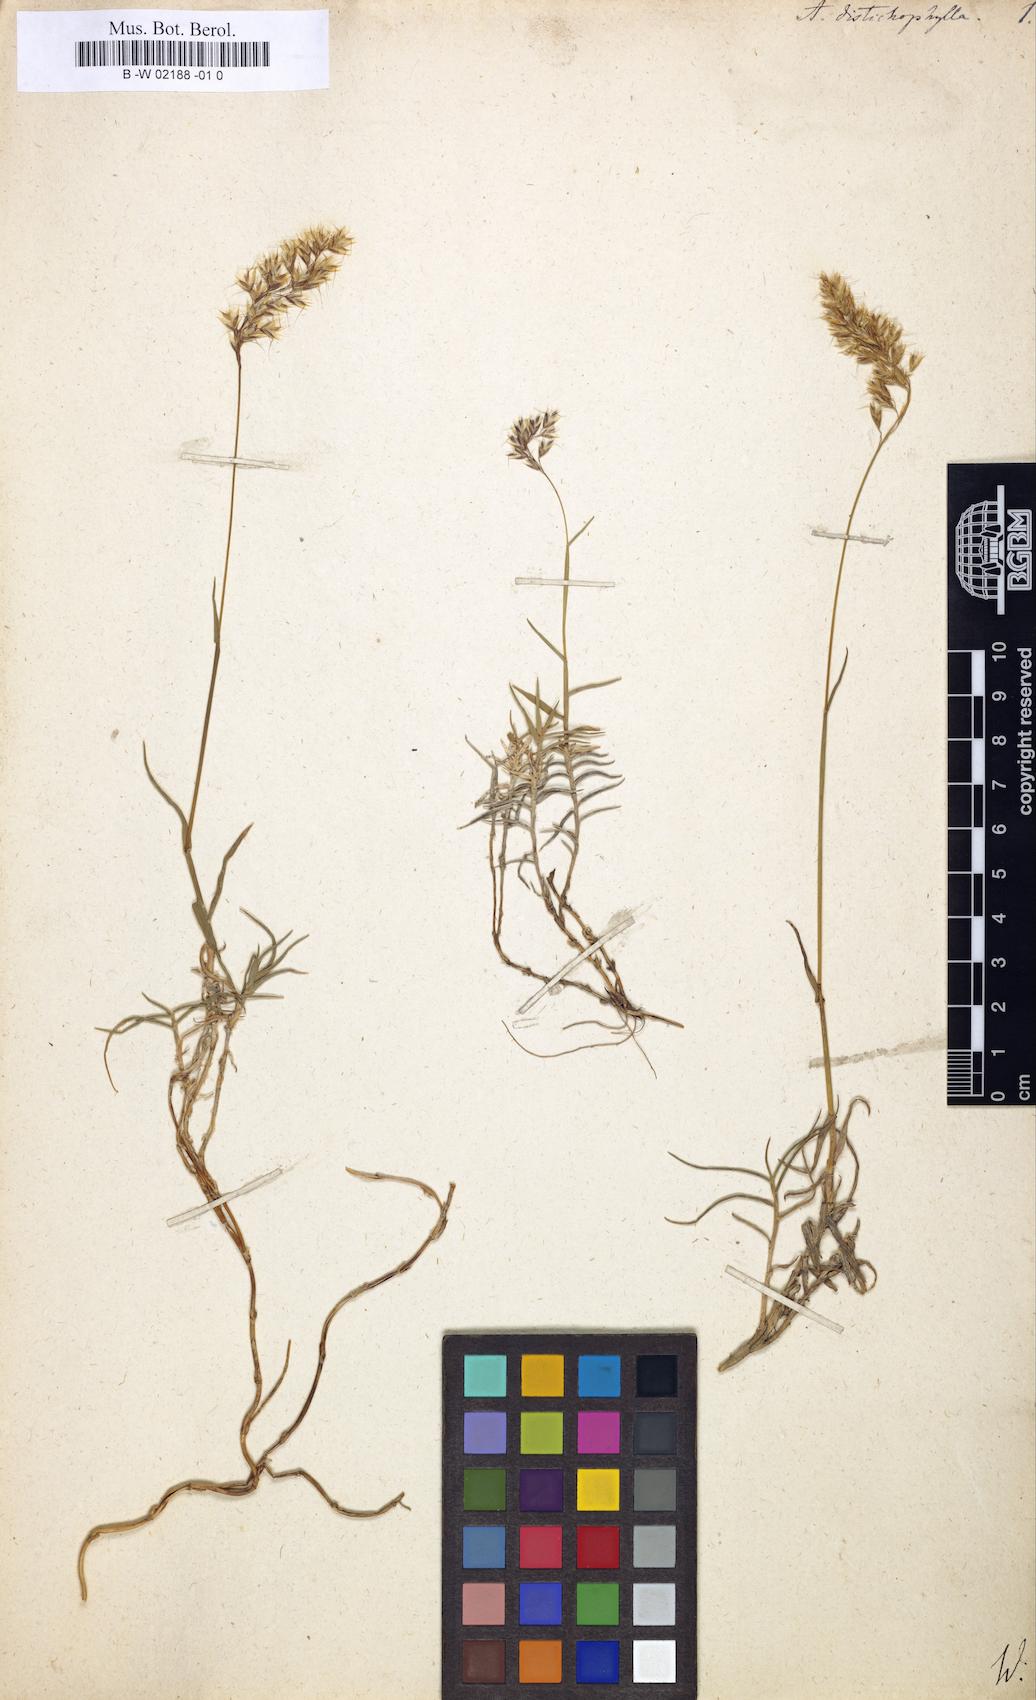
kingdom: Plantae
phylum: Tracheophyta
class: Liliopsida
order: Poales
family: Poaceae
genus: Acrospelion
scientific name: Acrospelion distichophyllum
